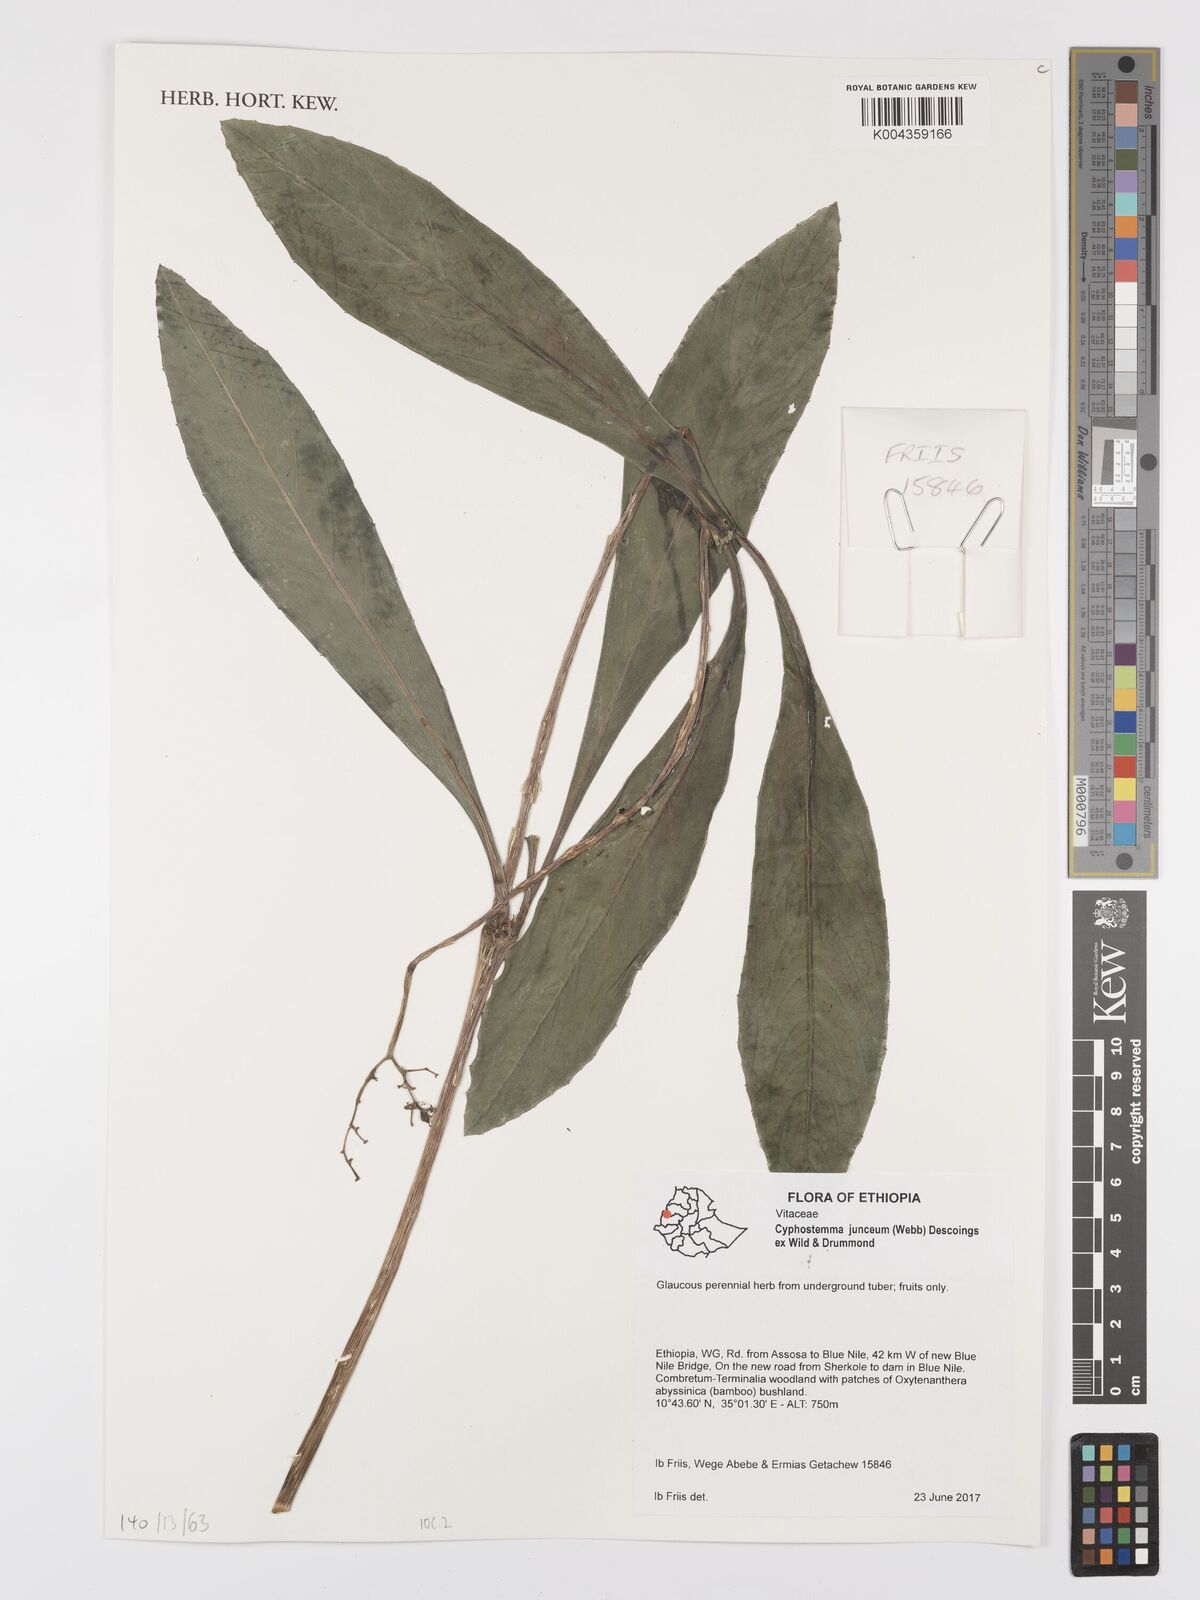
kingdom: Plantae
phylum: Tracheophyta
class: Magnoliopsida
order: Vitales
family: Vitaceae
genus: Cyphostemma
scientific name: Cyphostemma junceum
